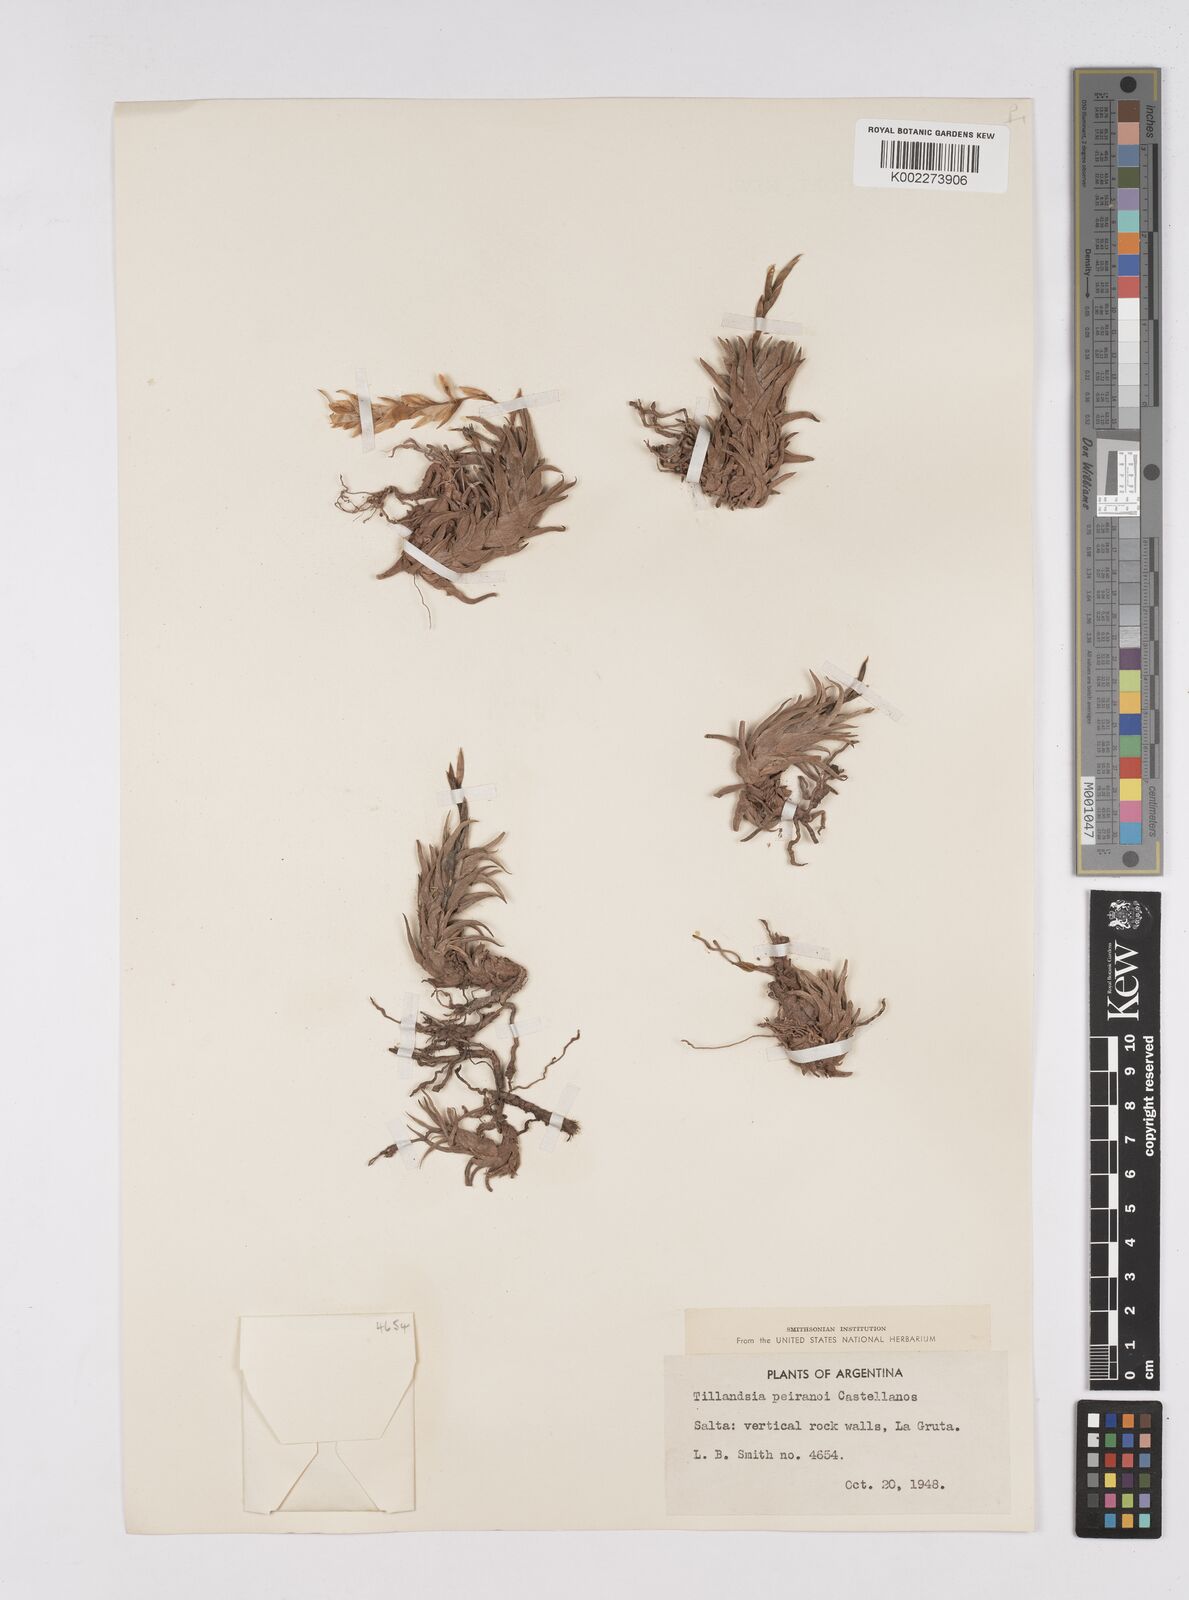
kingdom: Plantae
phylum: Tracheophyta
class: Liliopsida
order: Poales
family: Bromeliaceae
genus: Tillandsia
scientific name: Tillandsia peiranoi
